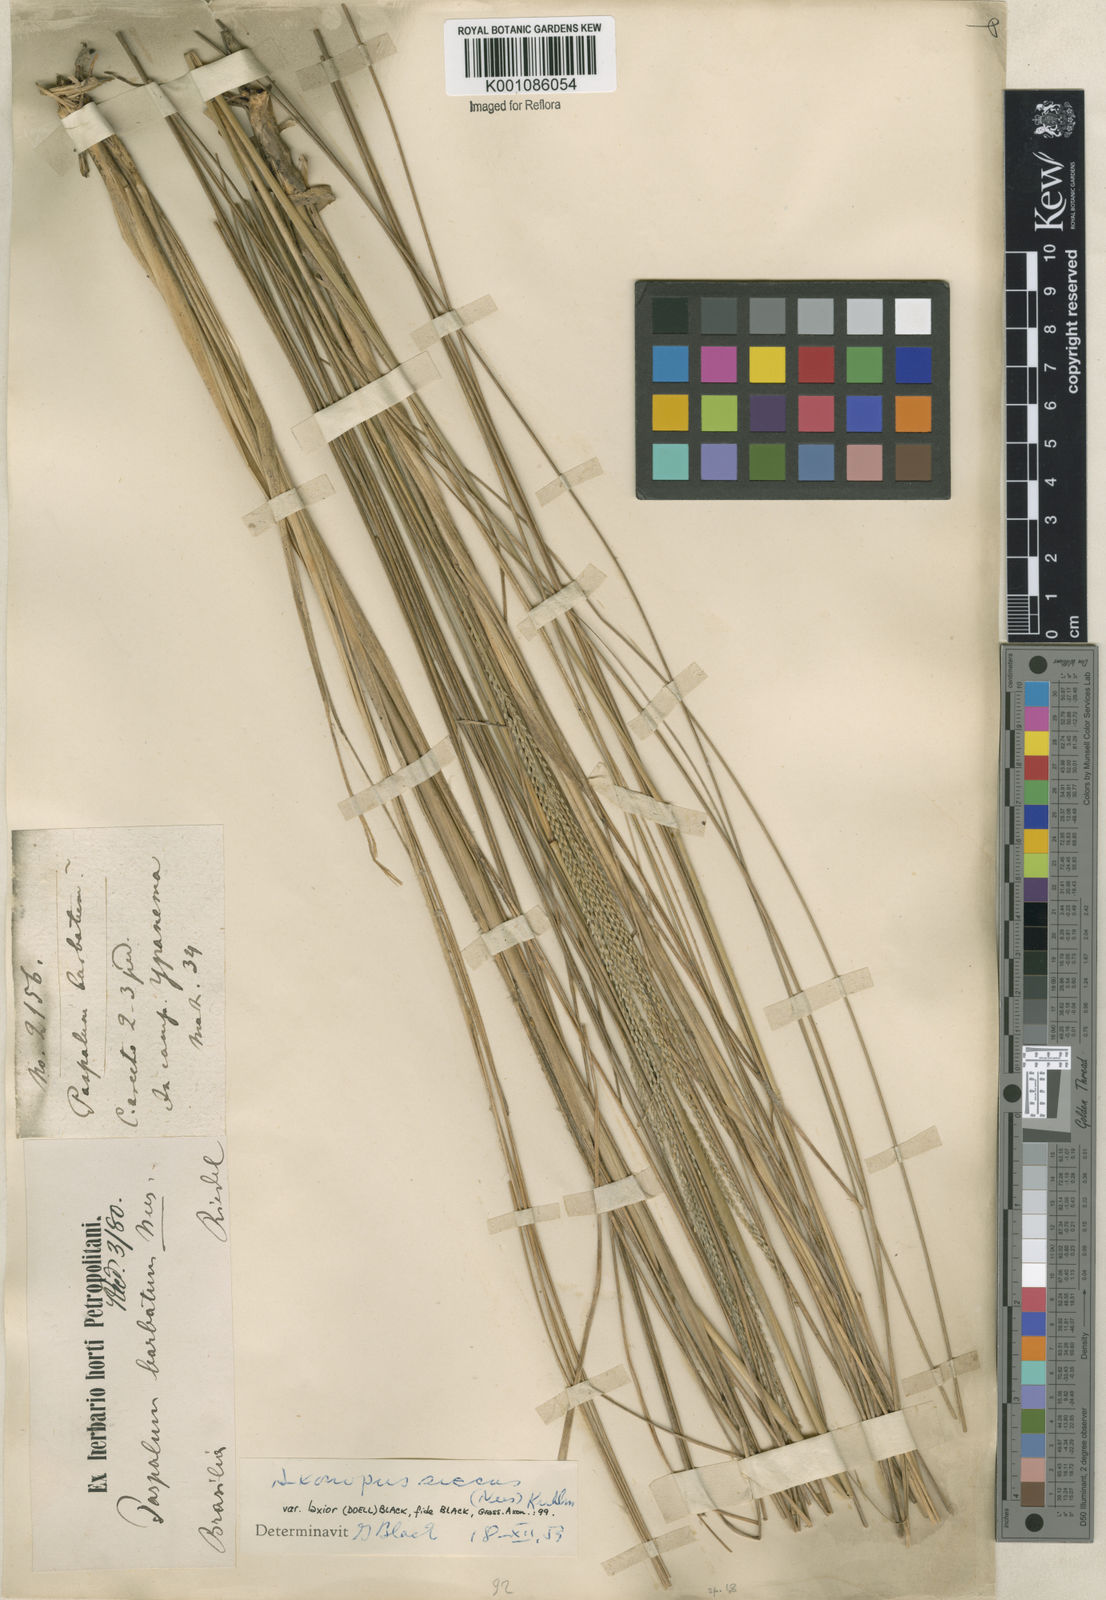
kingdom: Plantae
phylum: Tracheophyta
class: Liliopsida
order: Poales
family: Poaceae
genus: Axonopus
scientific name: Axonopus siccus
